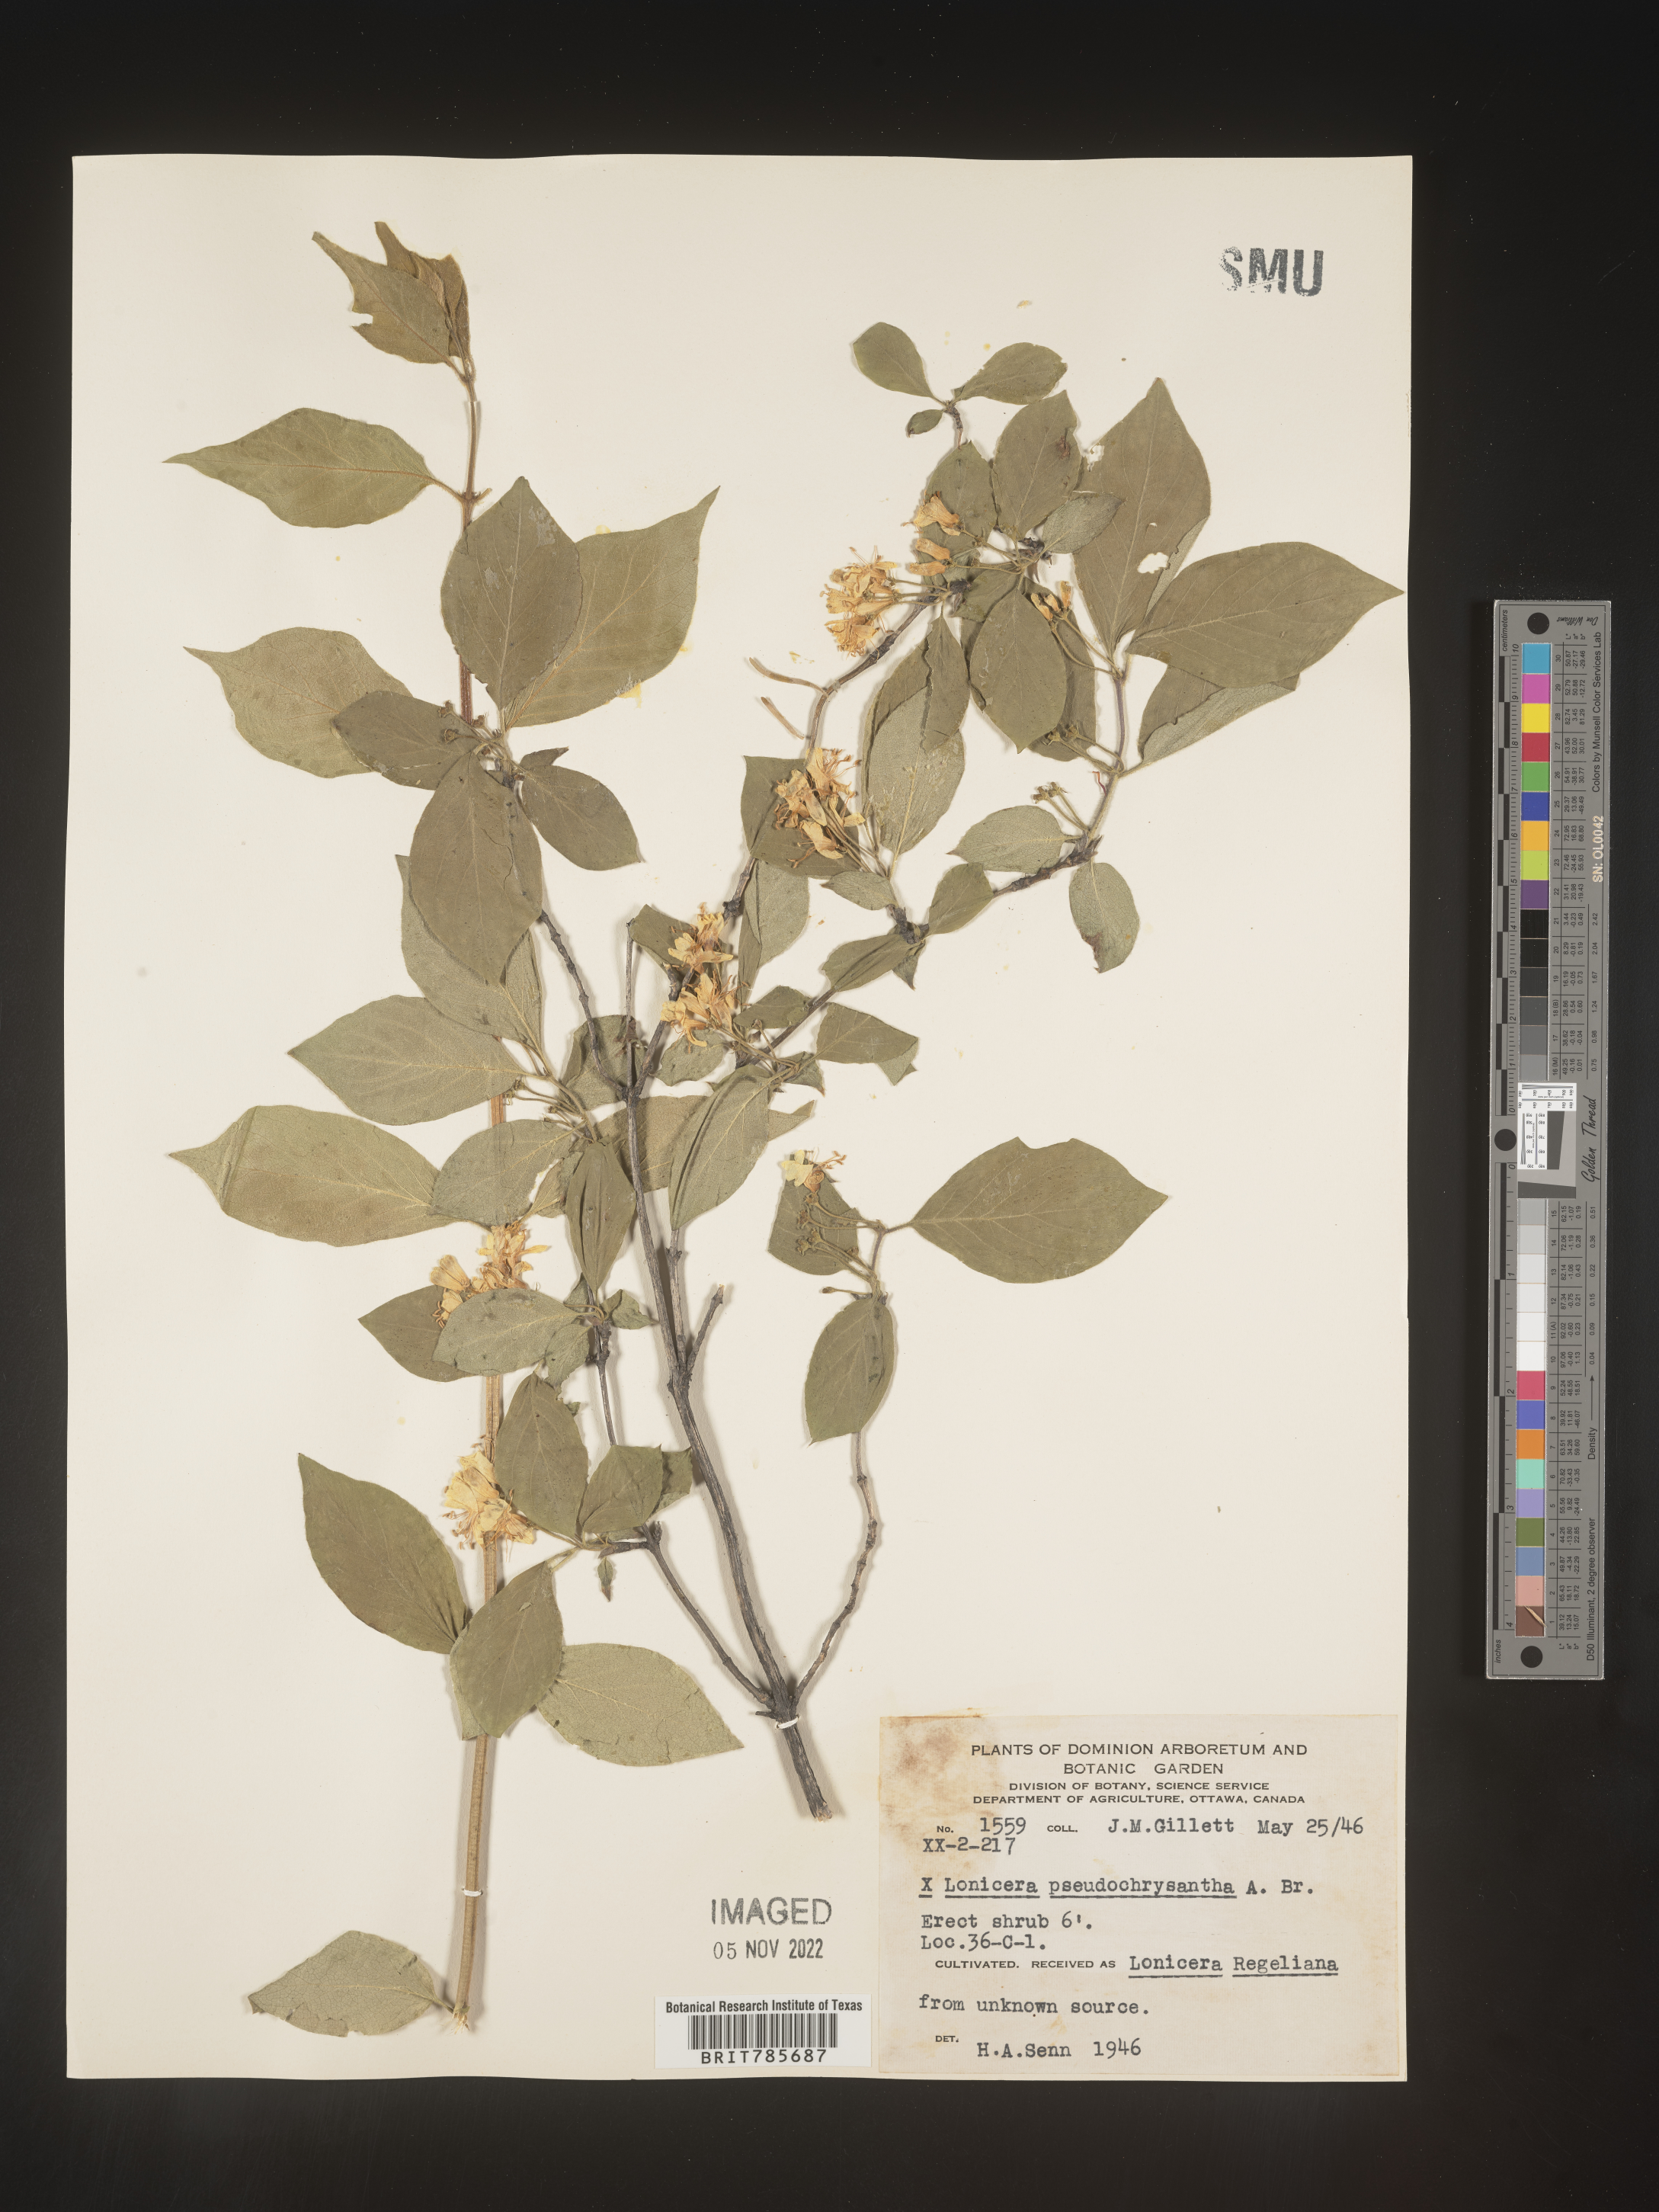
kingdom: Plantae
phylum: Tracheophyta
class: Magnoliopsida
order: Dipsacales
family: Caprifoliaceae
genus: Lonicera
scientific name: Lonicera
